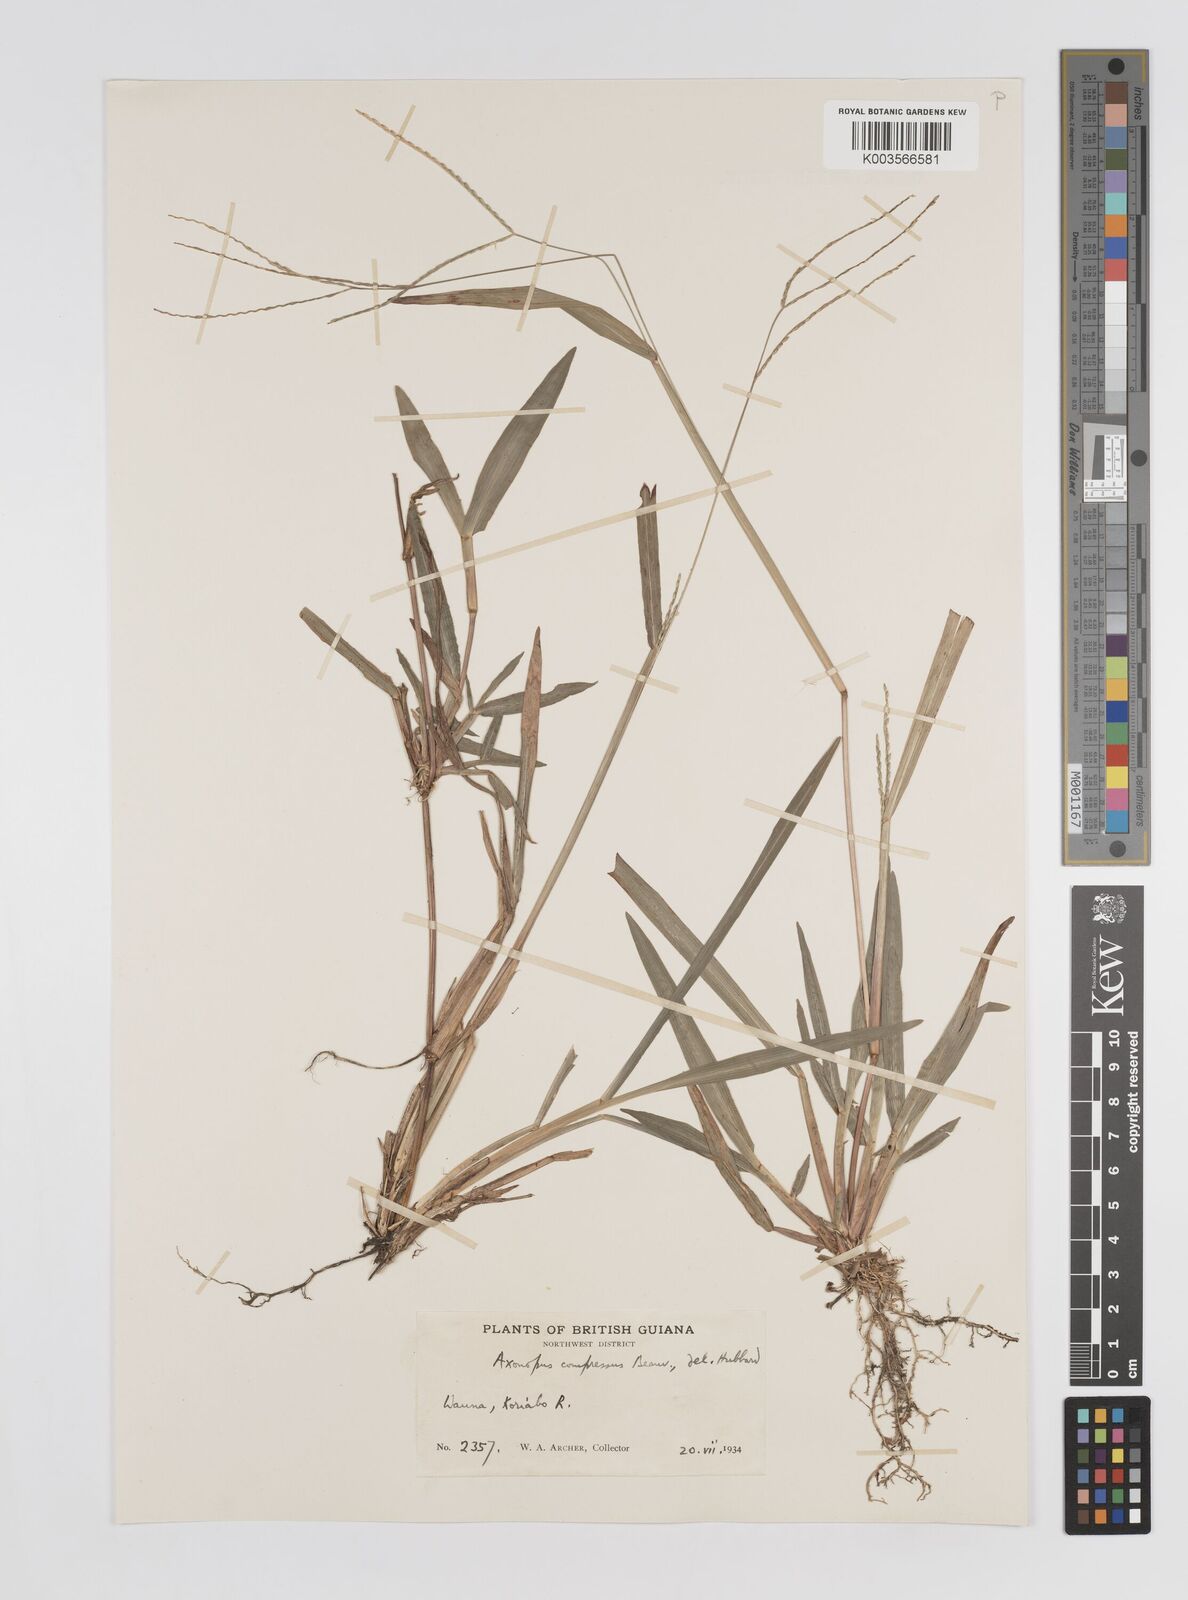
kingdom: Plantae
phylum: Tracheophyta
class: Liliopsida
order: Poales
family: Poaceae
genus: Axonopus
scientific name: Axonopus compressus
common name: American carpet grass
